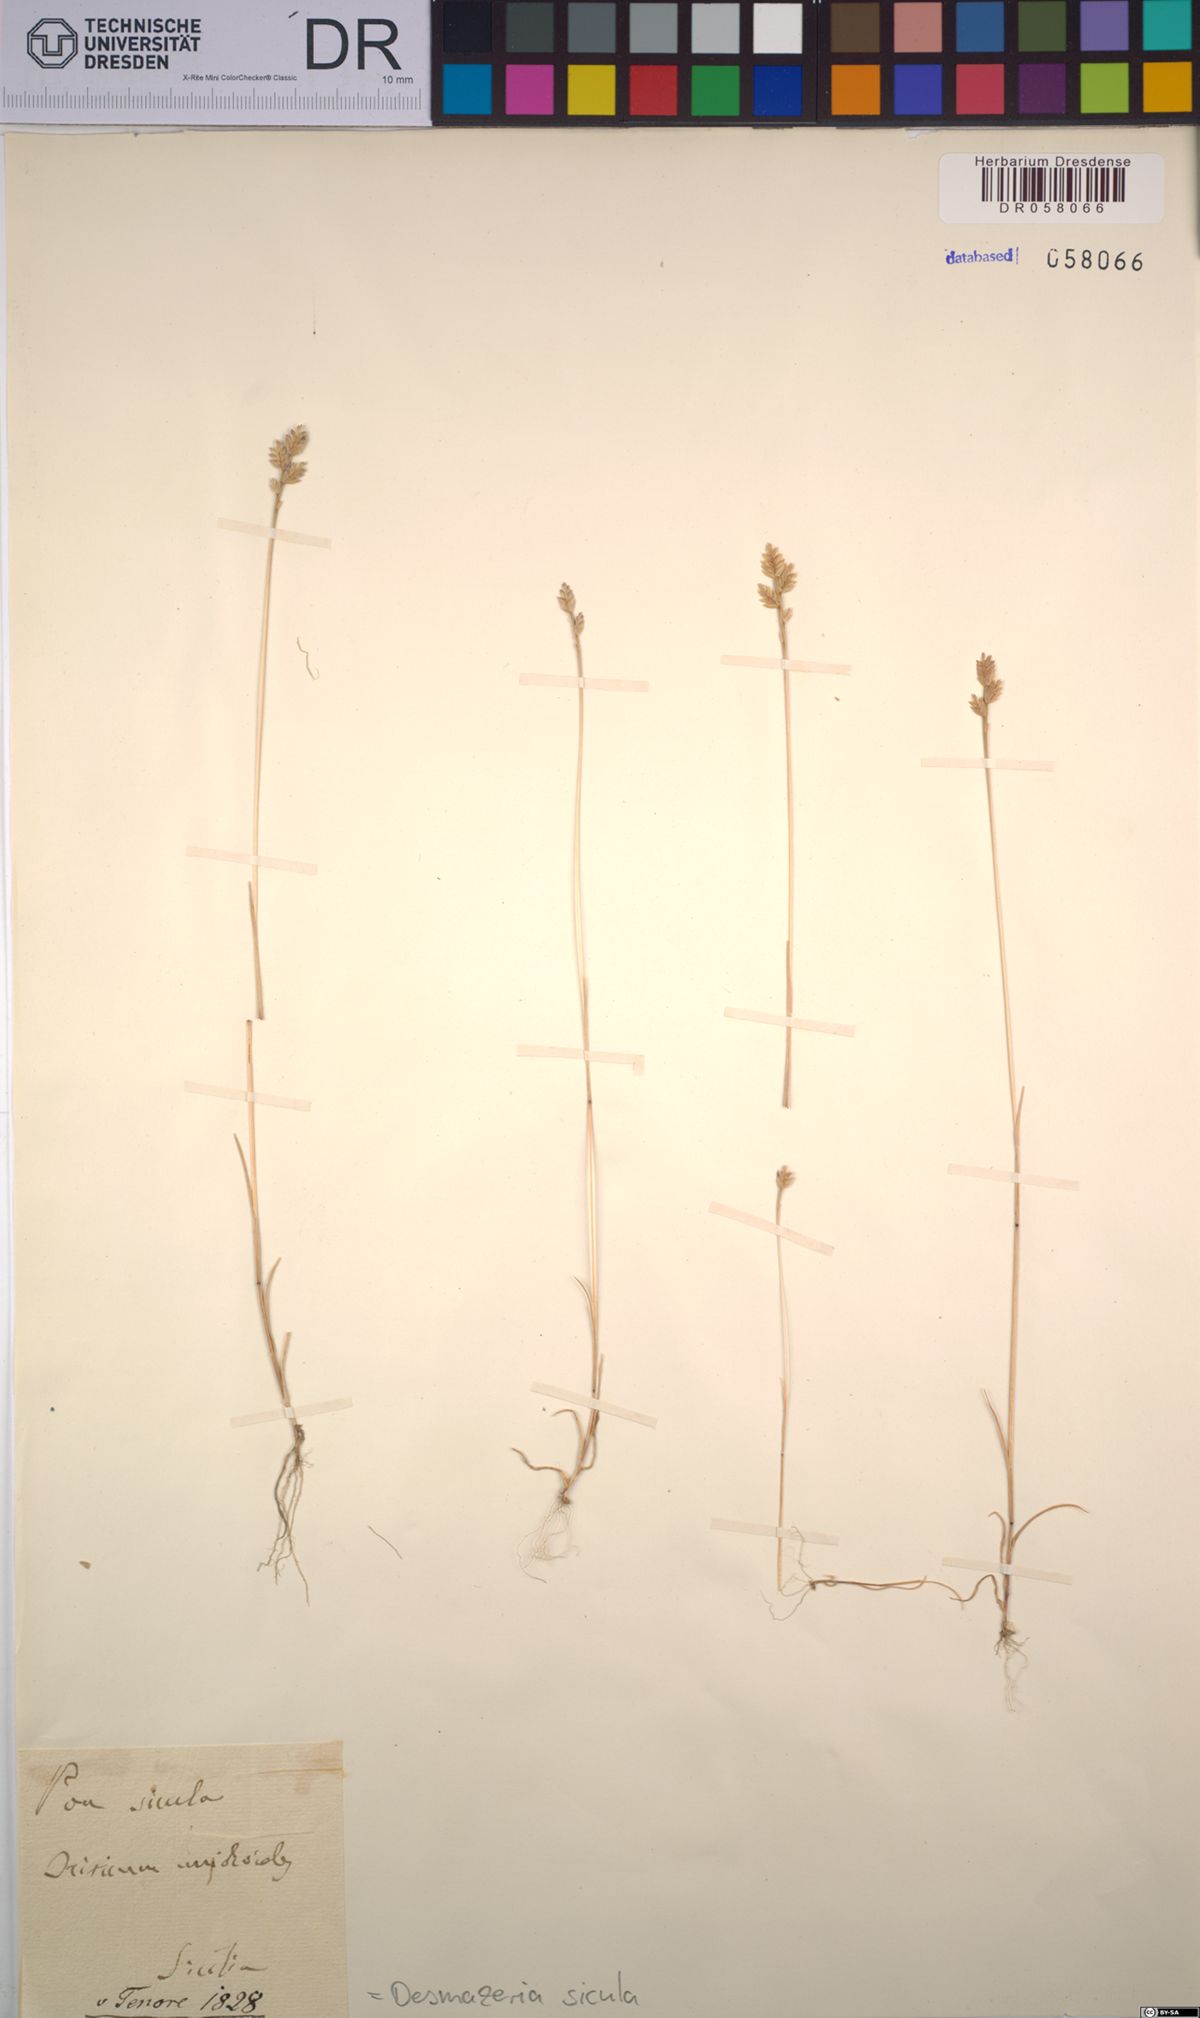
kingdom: Plantae
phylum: Tracheophyta
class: Liliopsida
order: Poales
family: Poaceae
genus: Desmazeria
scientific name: Desmazeria sicula
